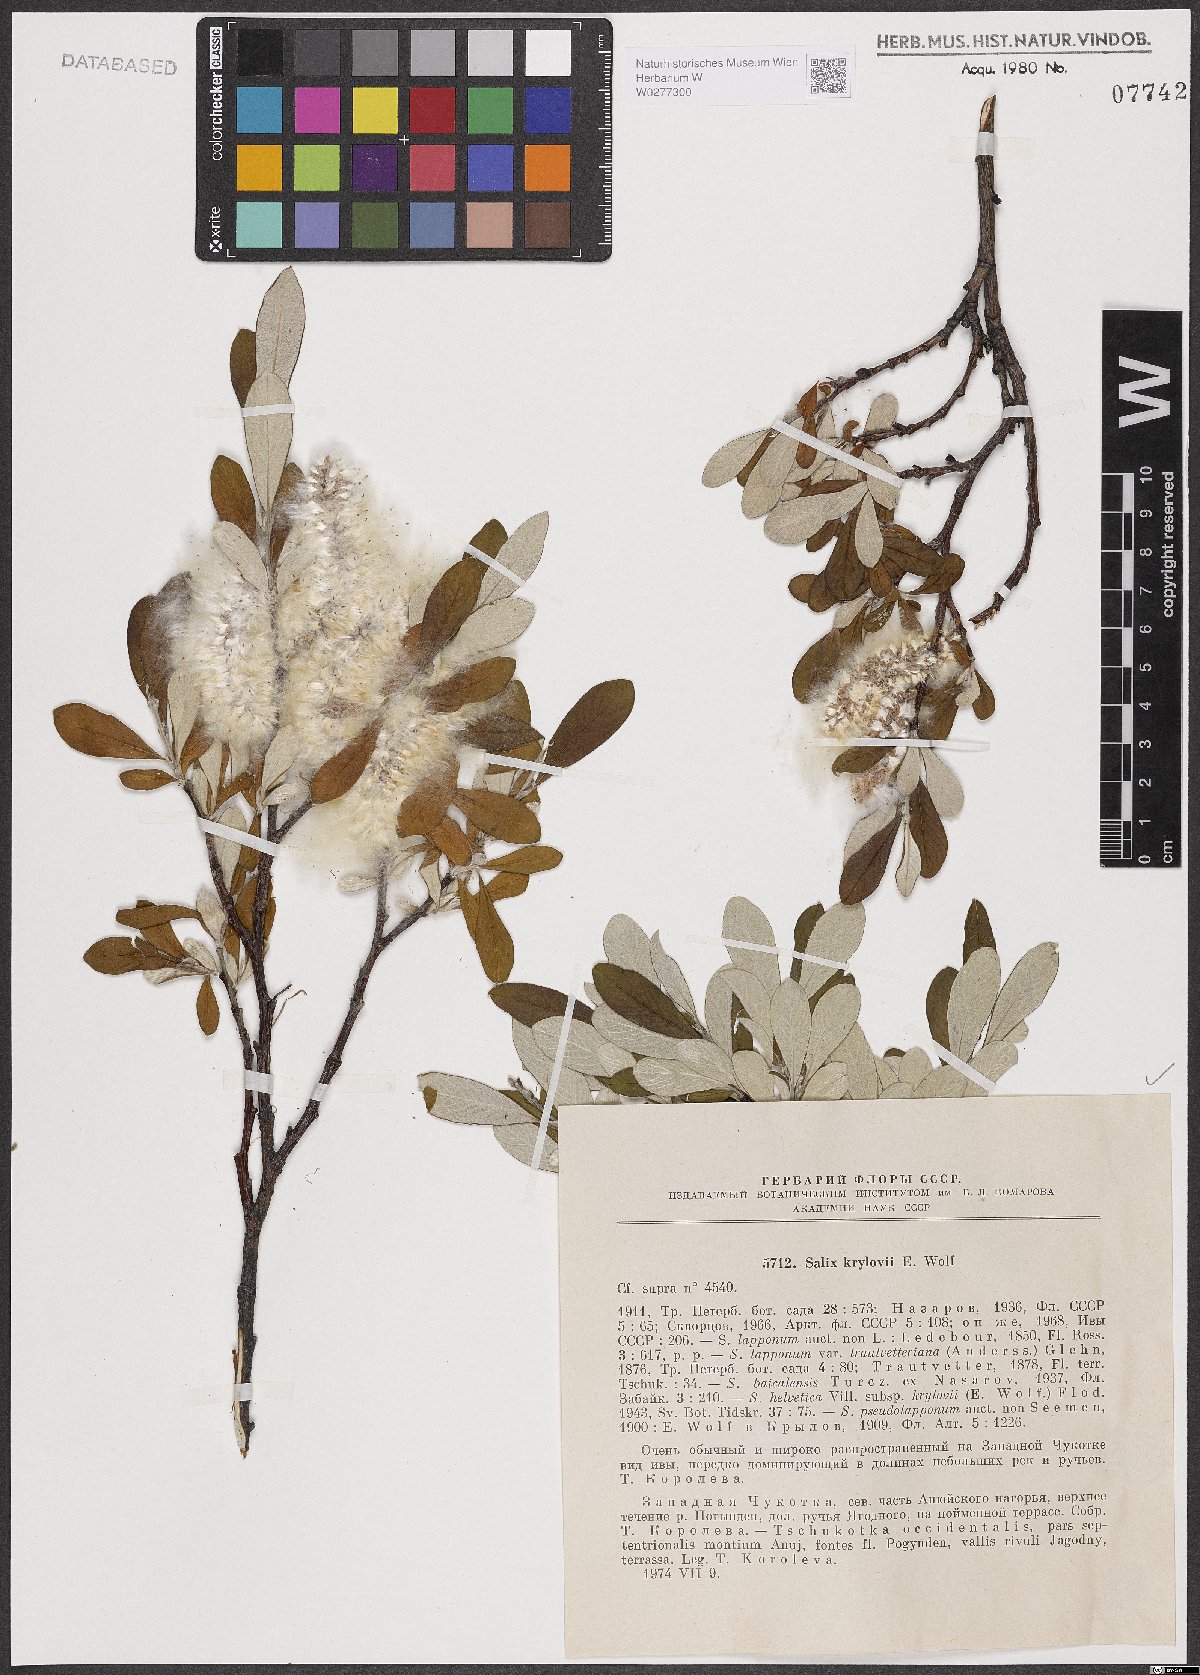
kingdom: Plantae
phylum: Tracheophyta
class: Magnoliopsida
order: Malpighiales
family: Salicaceae
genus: Salix
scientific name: Salix krylovii
